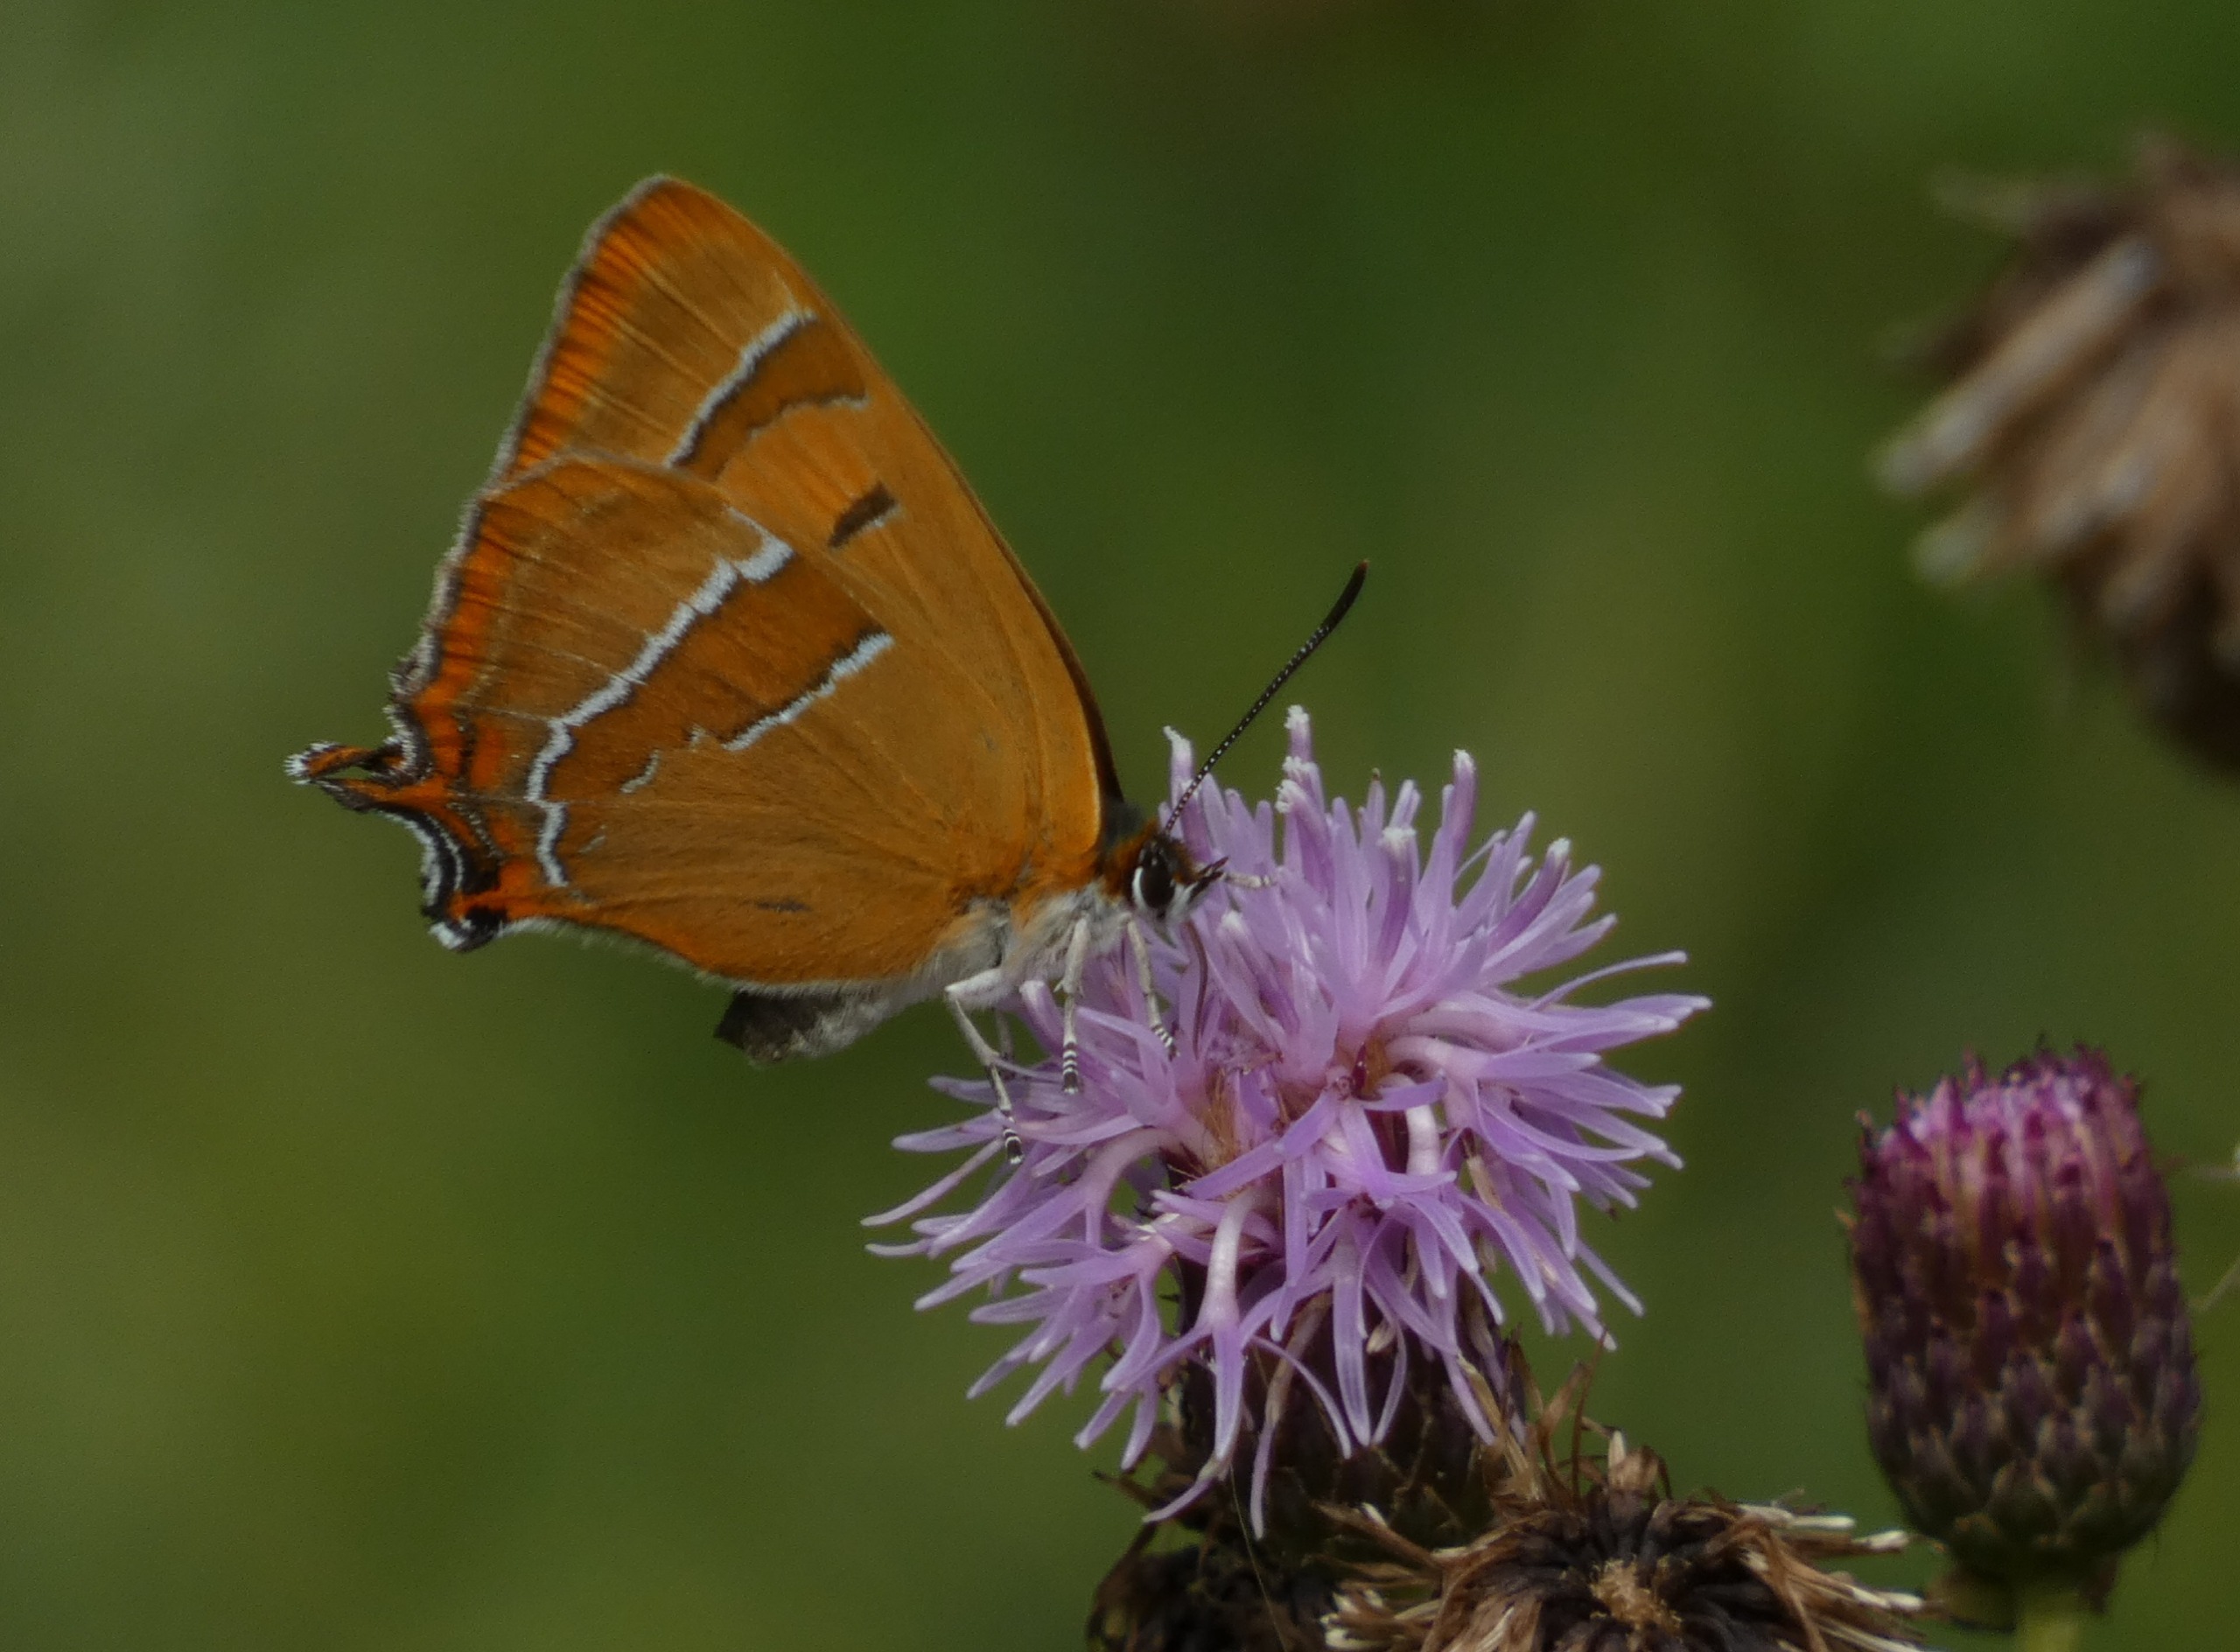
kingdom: Animalia
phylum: Arthropoda
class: Insecta
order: Lepidoptera
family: Lycaenidae
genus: Thecla
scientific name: Thecla betulae
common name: Guldhale
